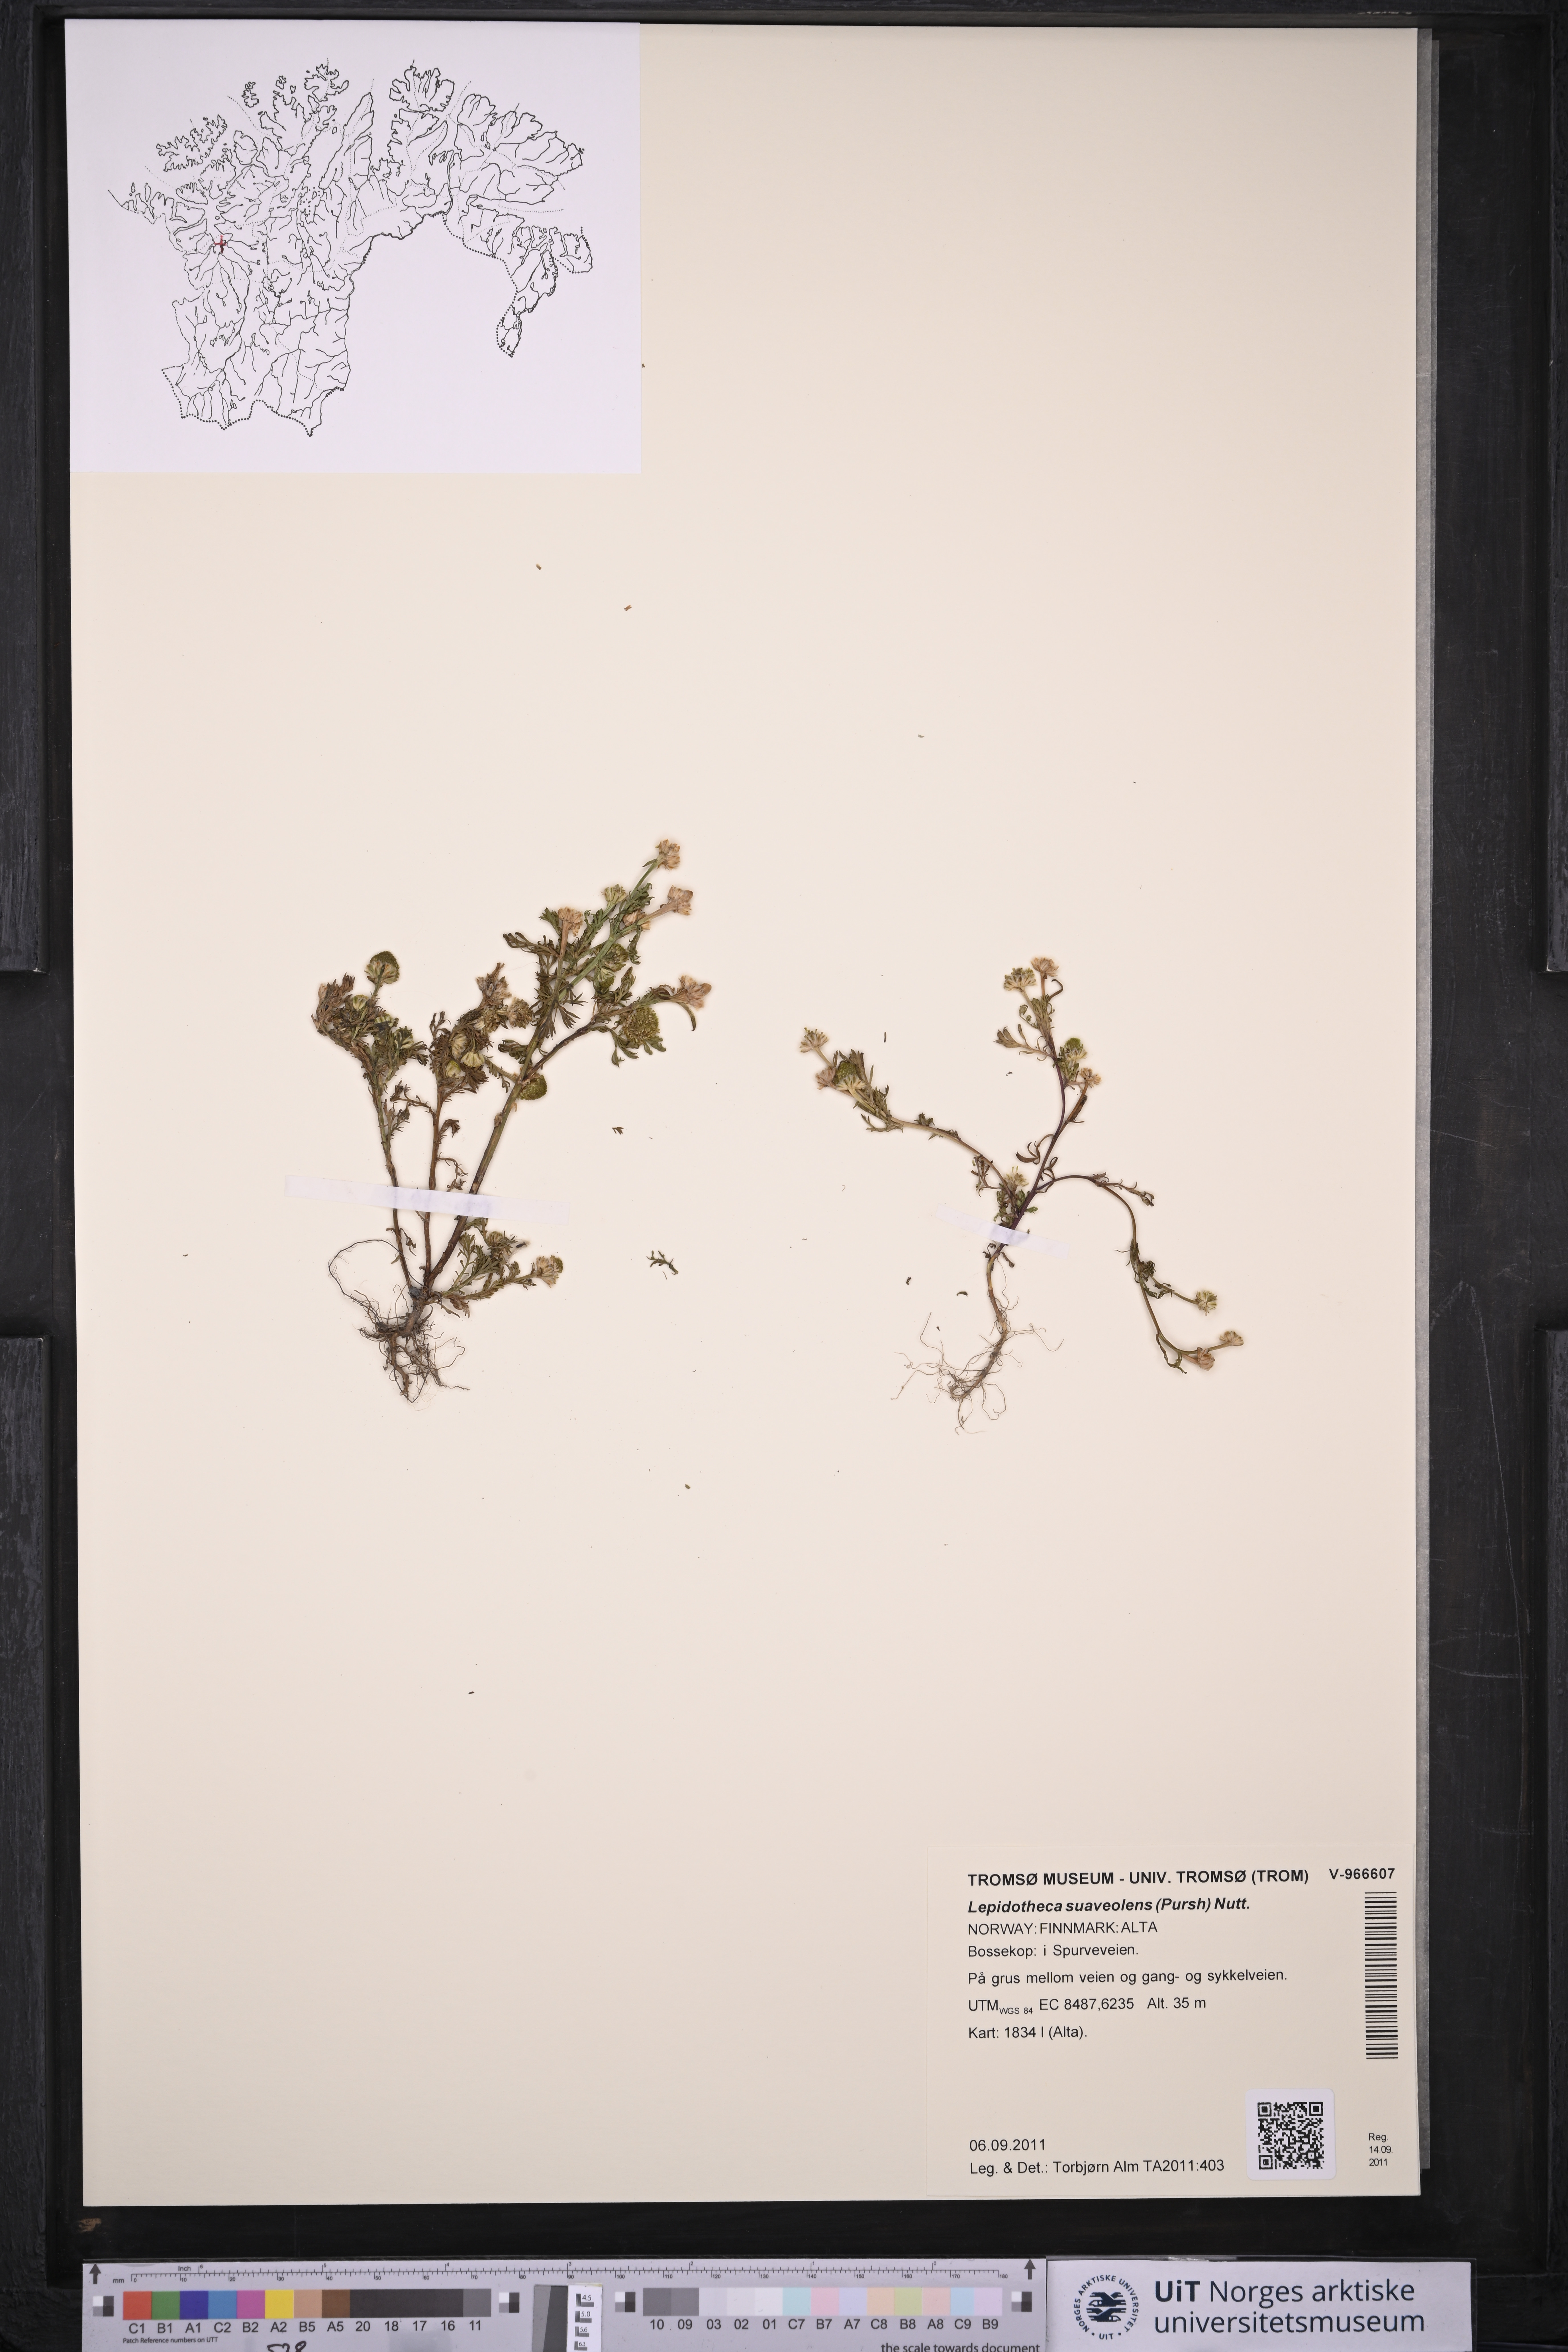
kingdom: Plantae
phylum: Tracheophyta
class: Magnoliopsida
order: Asterales
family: Asteraceae
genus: Matricaria
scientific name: Matricaria discoidea
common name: Disc mayweed
